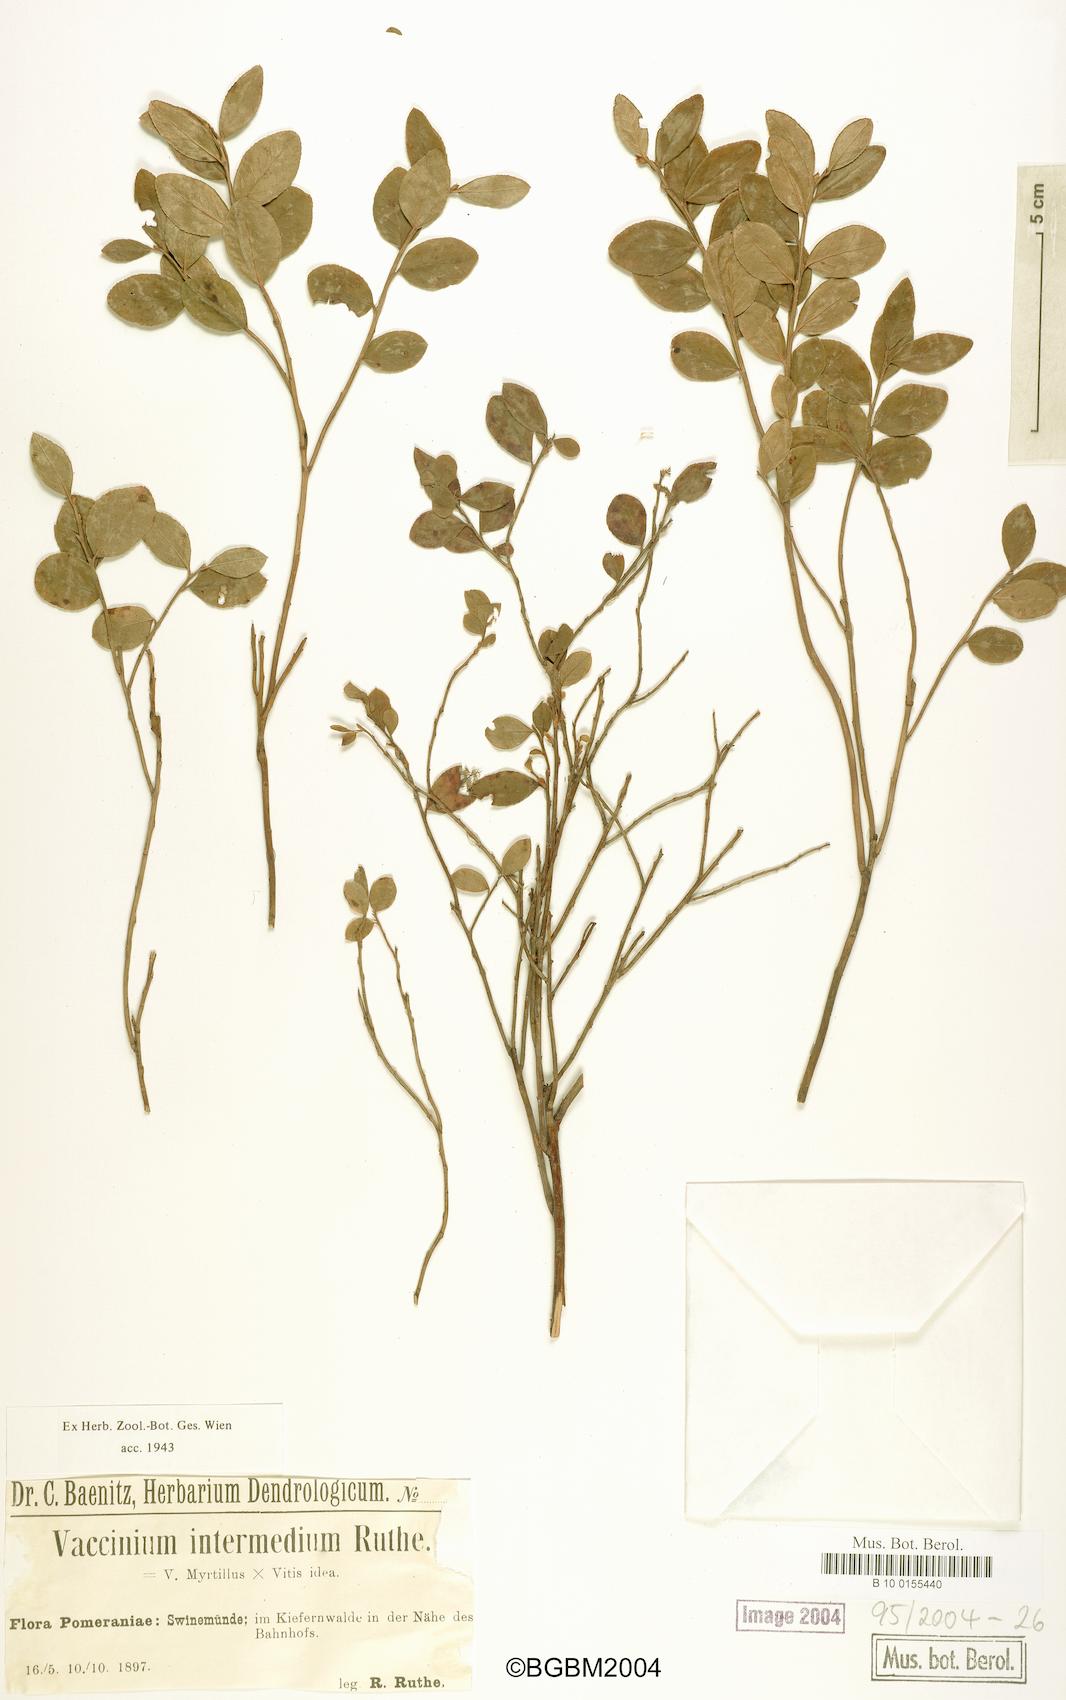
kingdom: Plantae
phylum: Tracheophyta
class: Magnoliopsida
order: Ericales
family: Ericaceae
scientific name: Ericaceae
